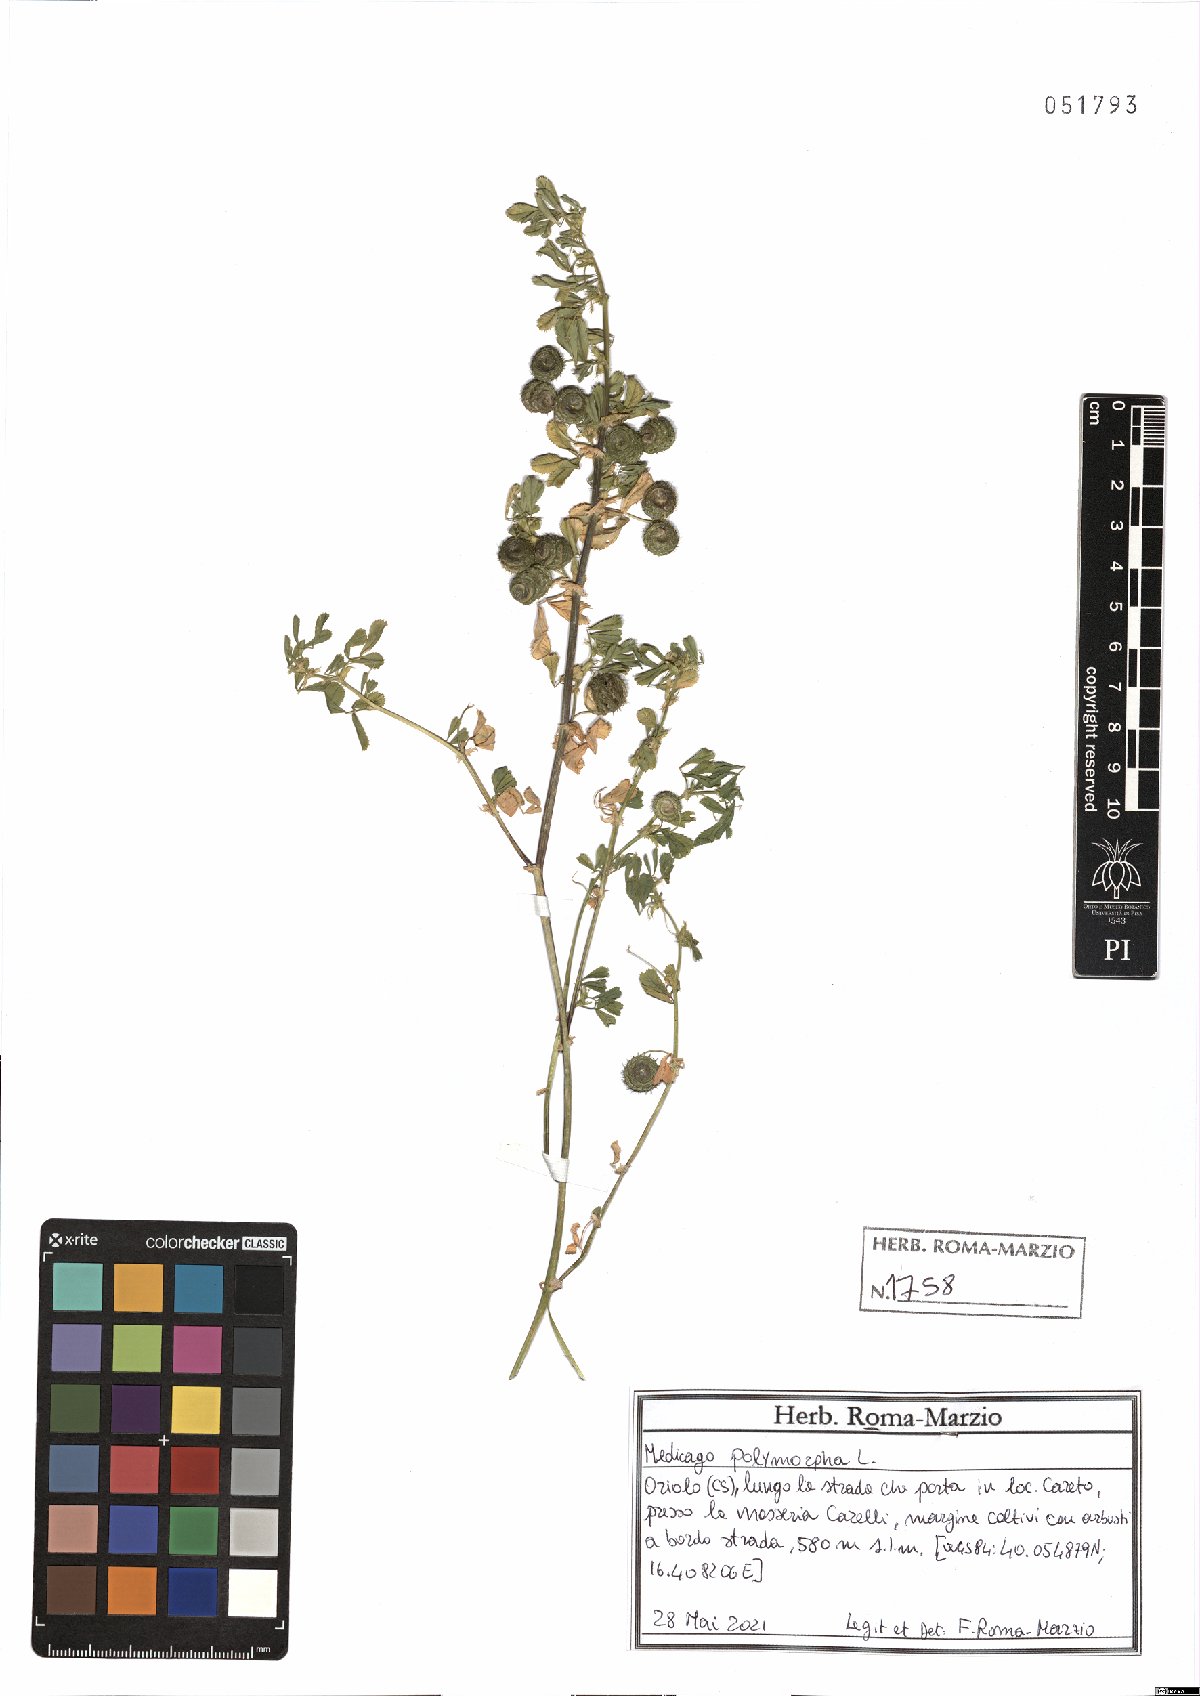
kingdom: Plantae
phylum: Tracheophyta
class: Magnoliopsida
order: Fabales
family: Fabaceae
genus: Medicago
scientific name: Medicago polymorpha
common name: Burclover
